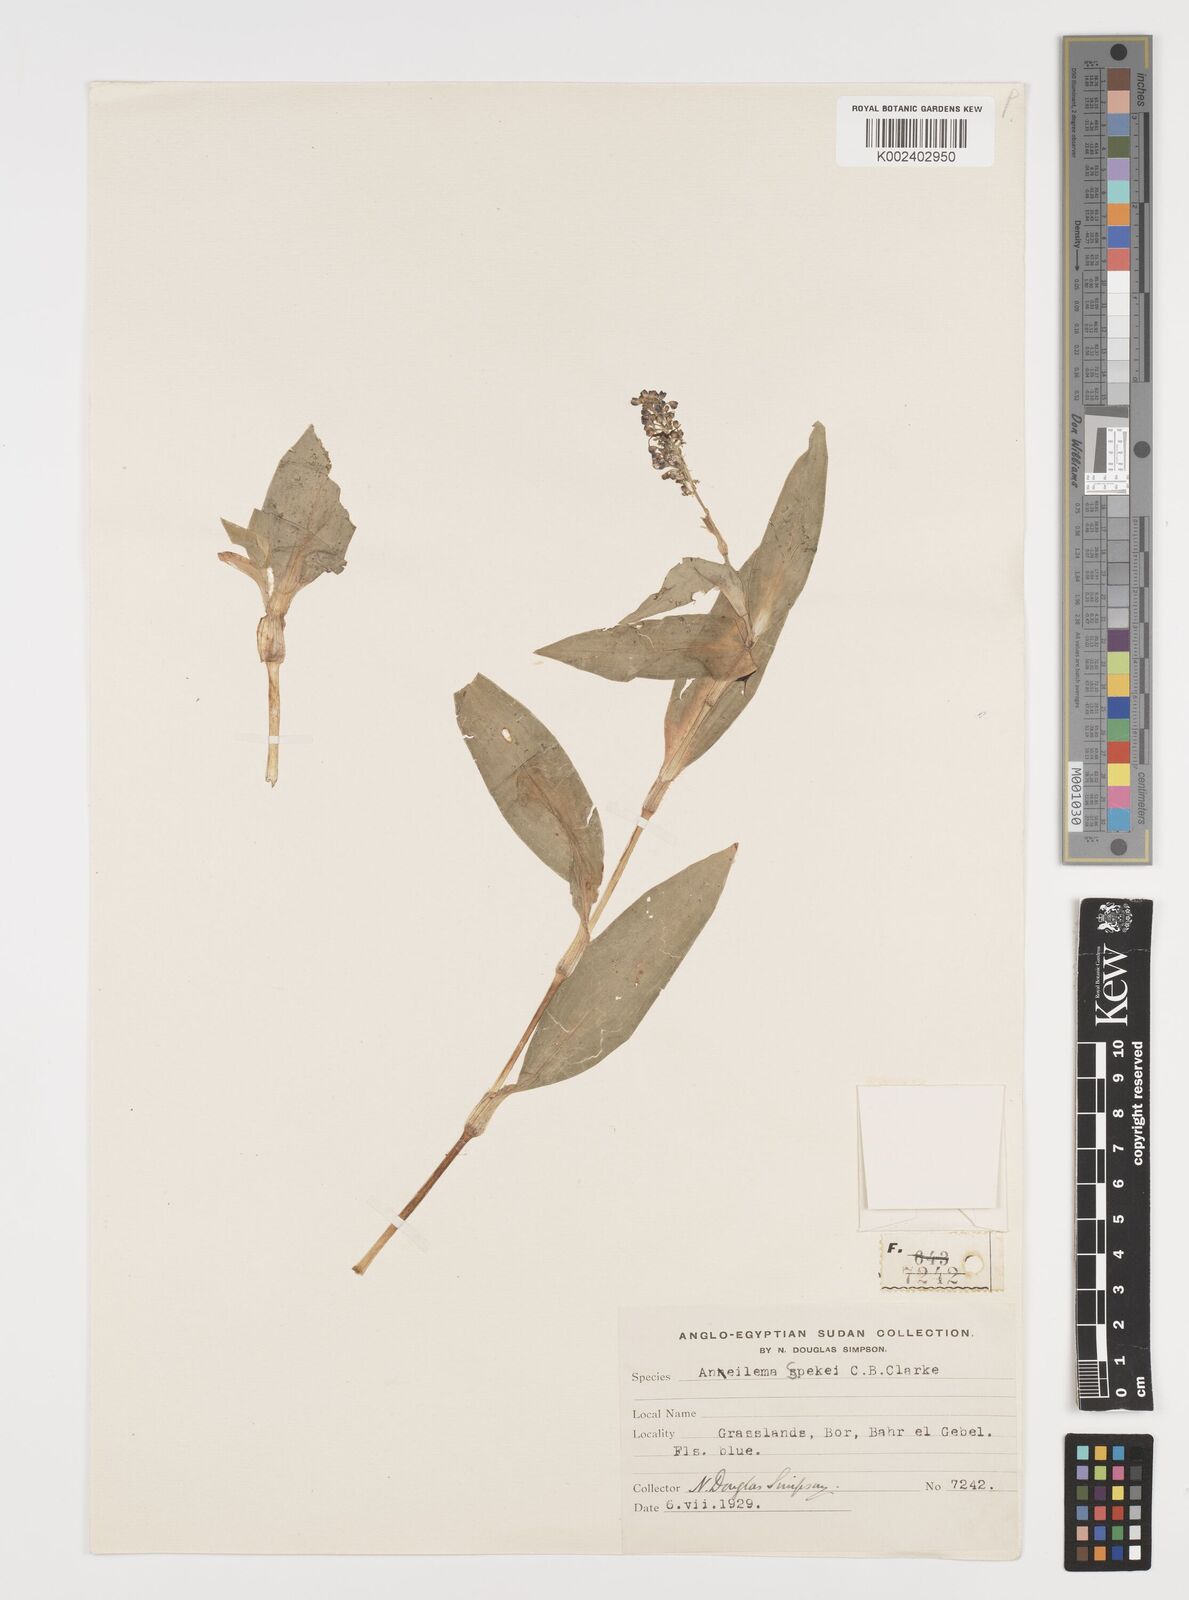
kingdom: Plantae
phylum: Tracheophyta
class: Liliopsida
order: Commelinales
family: Commelinaceae
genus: Aneilema
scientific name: Aneilema spekei
